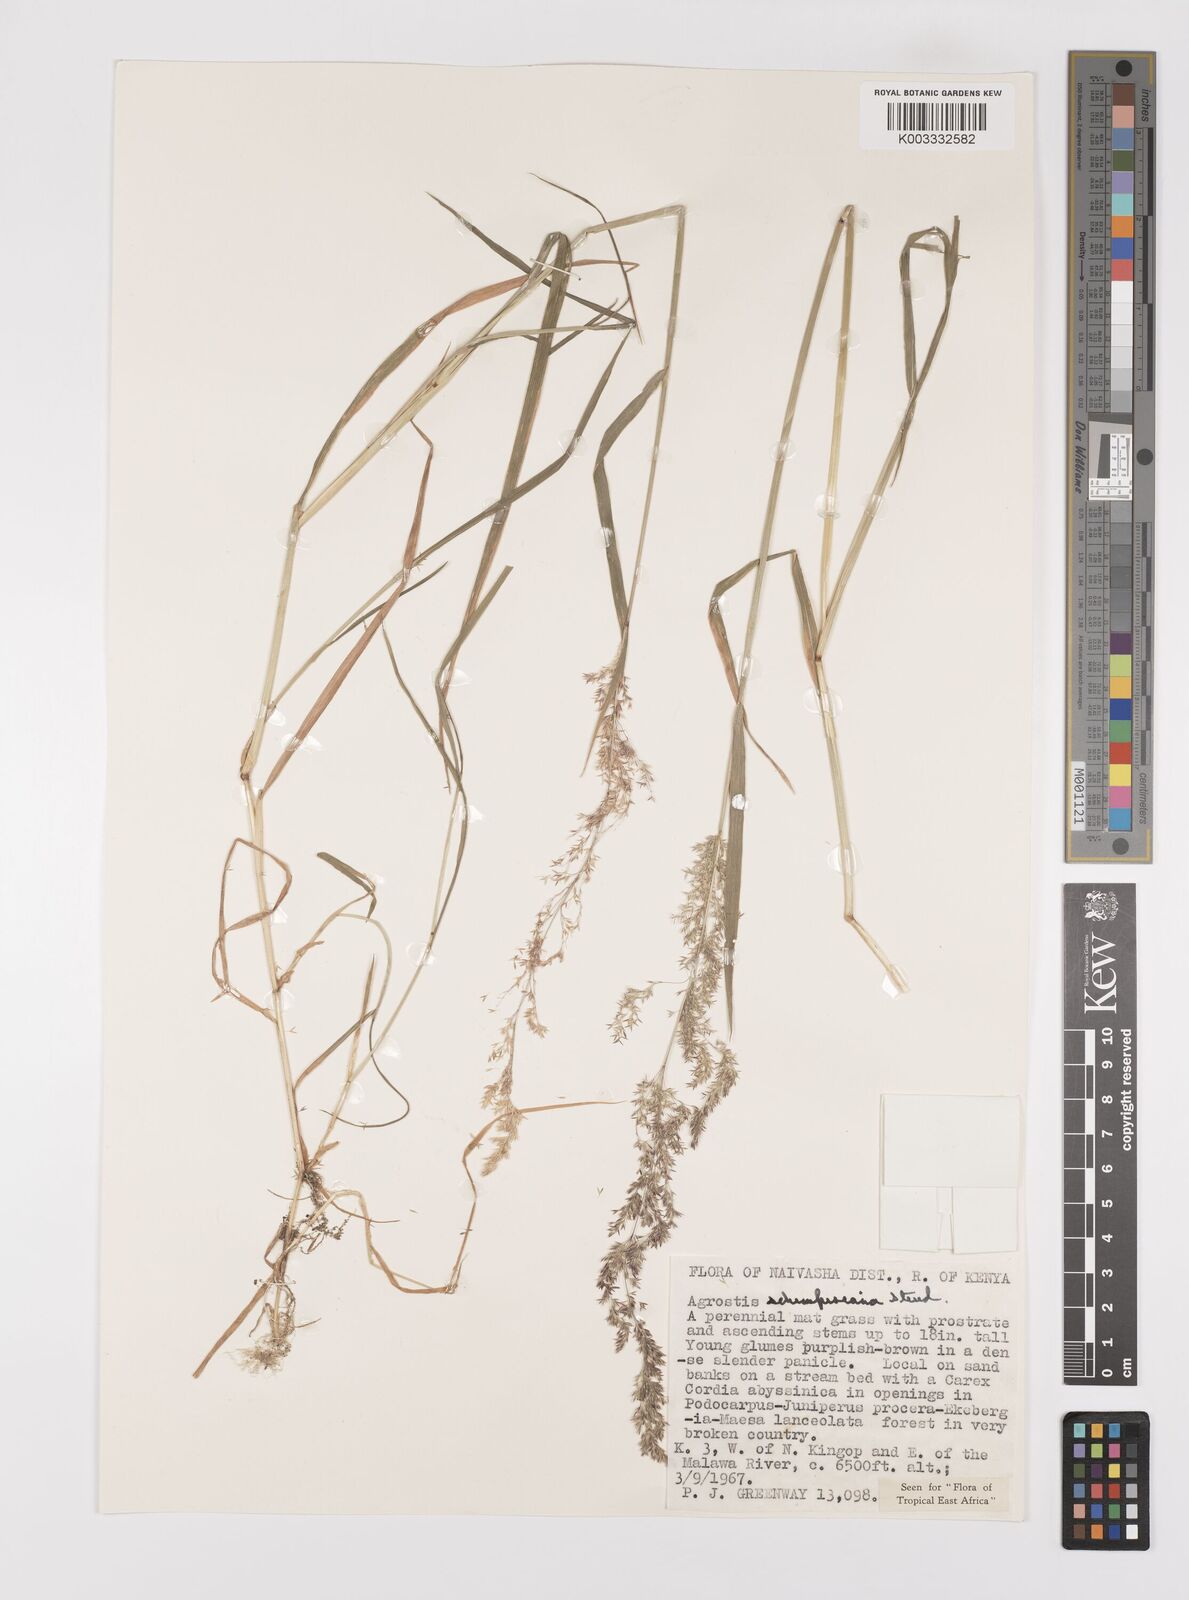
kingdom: Plantae
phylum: Tracheophyta
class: Liliopsida
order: Poales
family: Poaceae
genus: Polypogon
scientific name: Polypogon schimperianus
